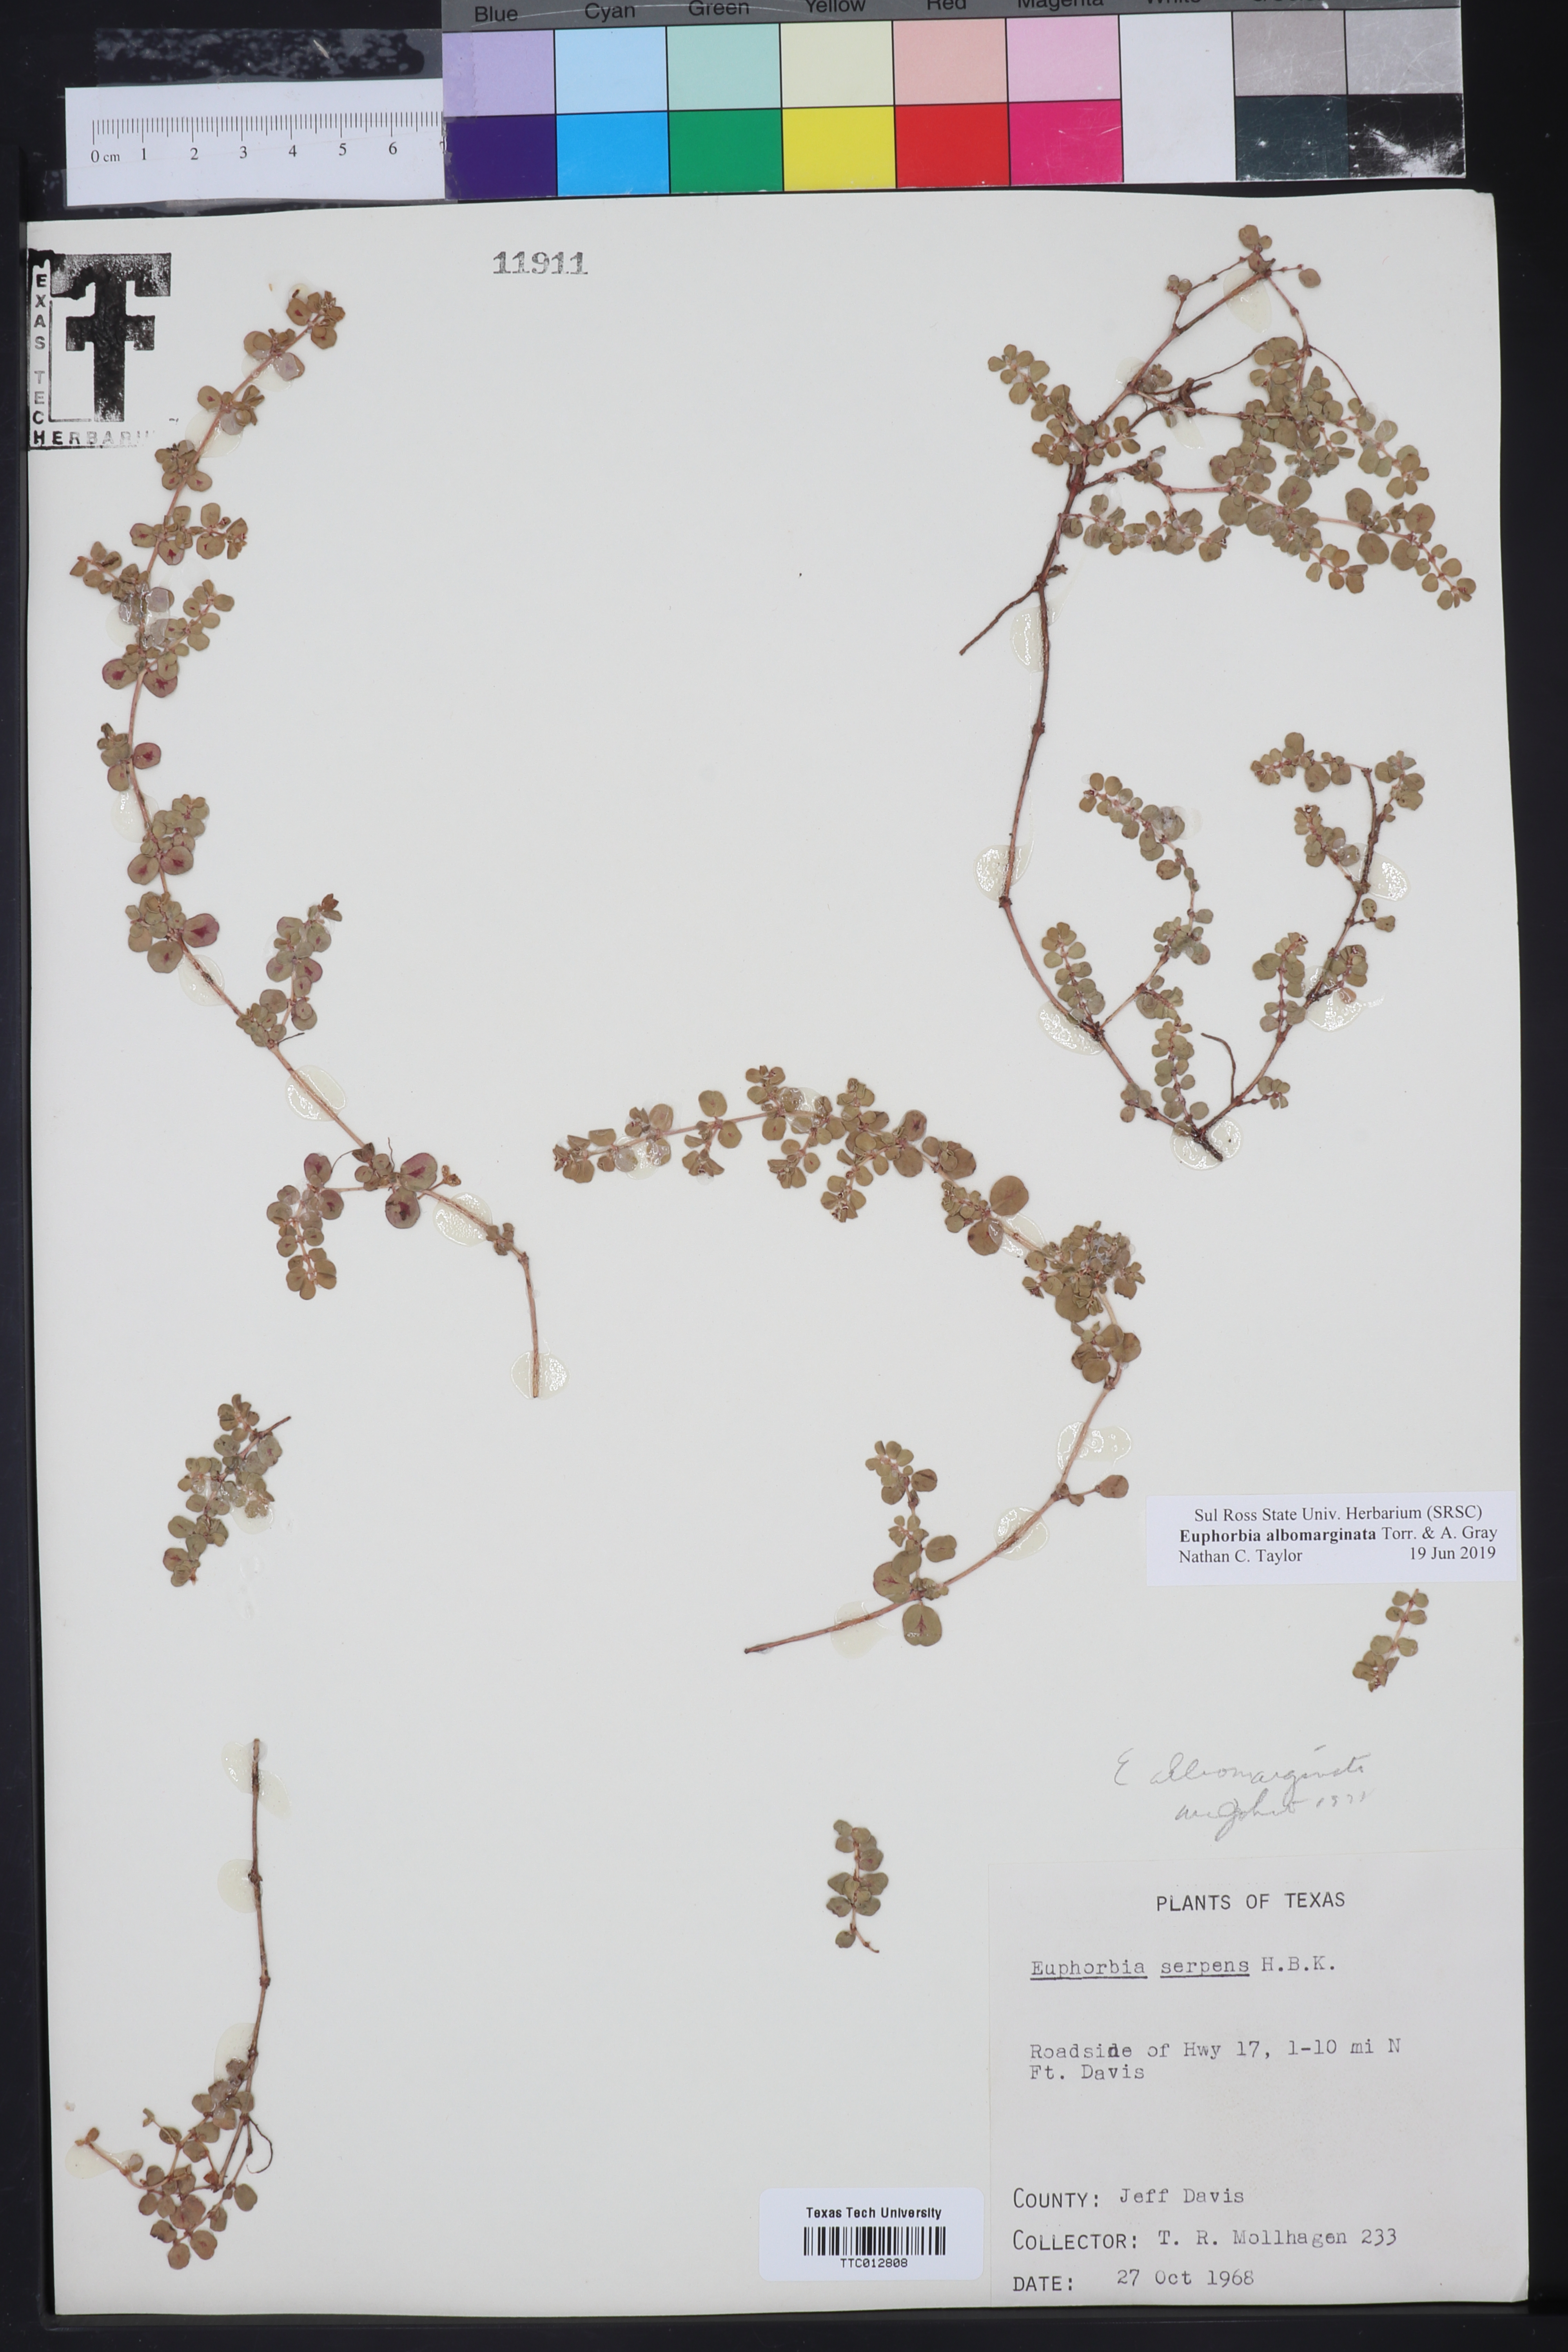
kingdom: Plantae
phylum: Tracheophyta
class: Magnoliopsida
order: Malpighiales
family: Euphorbiaceae
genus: Euphorbia
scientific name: Euphorbia albomarginata
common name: Whitemargin sandmat
